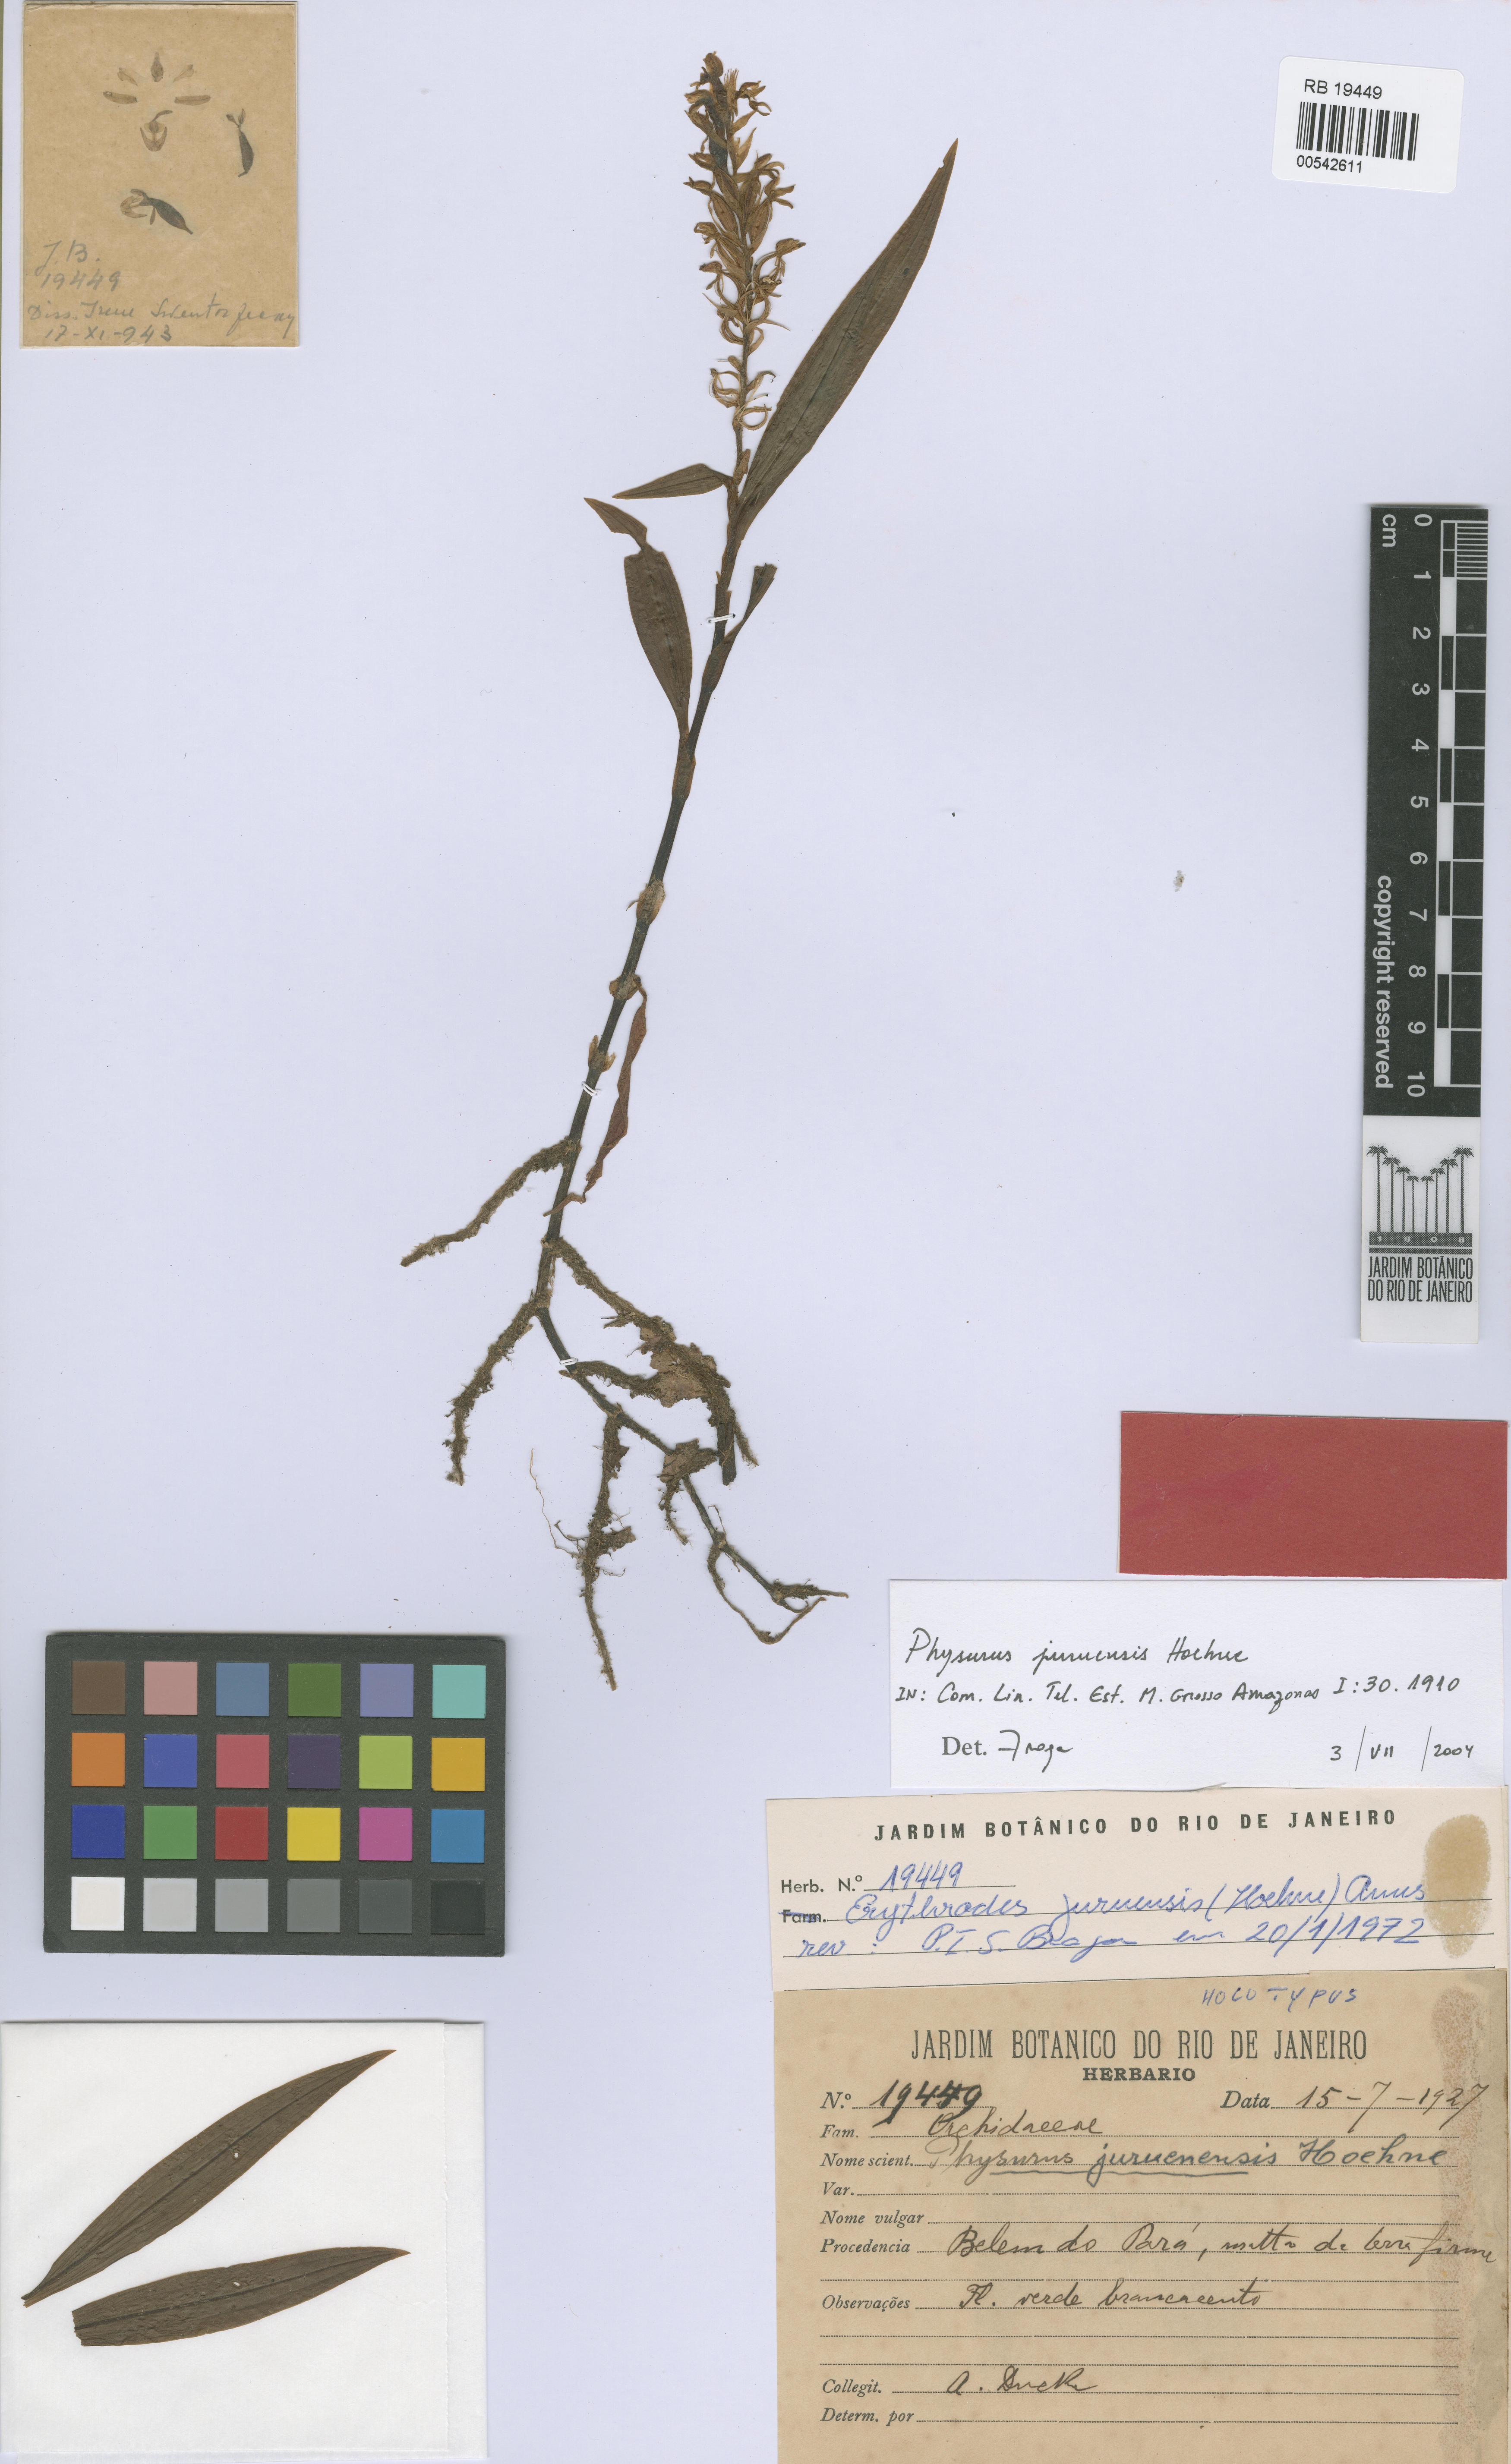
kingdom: Plantae
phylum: Tracheophyta
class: Liliopsida
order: Asparagales
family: Orchidaceae
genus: Aspidogyne
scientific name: Aspidogyne juruenensis
